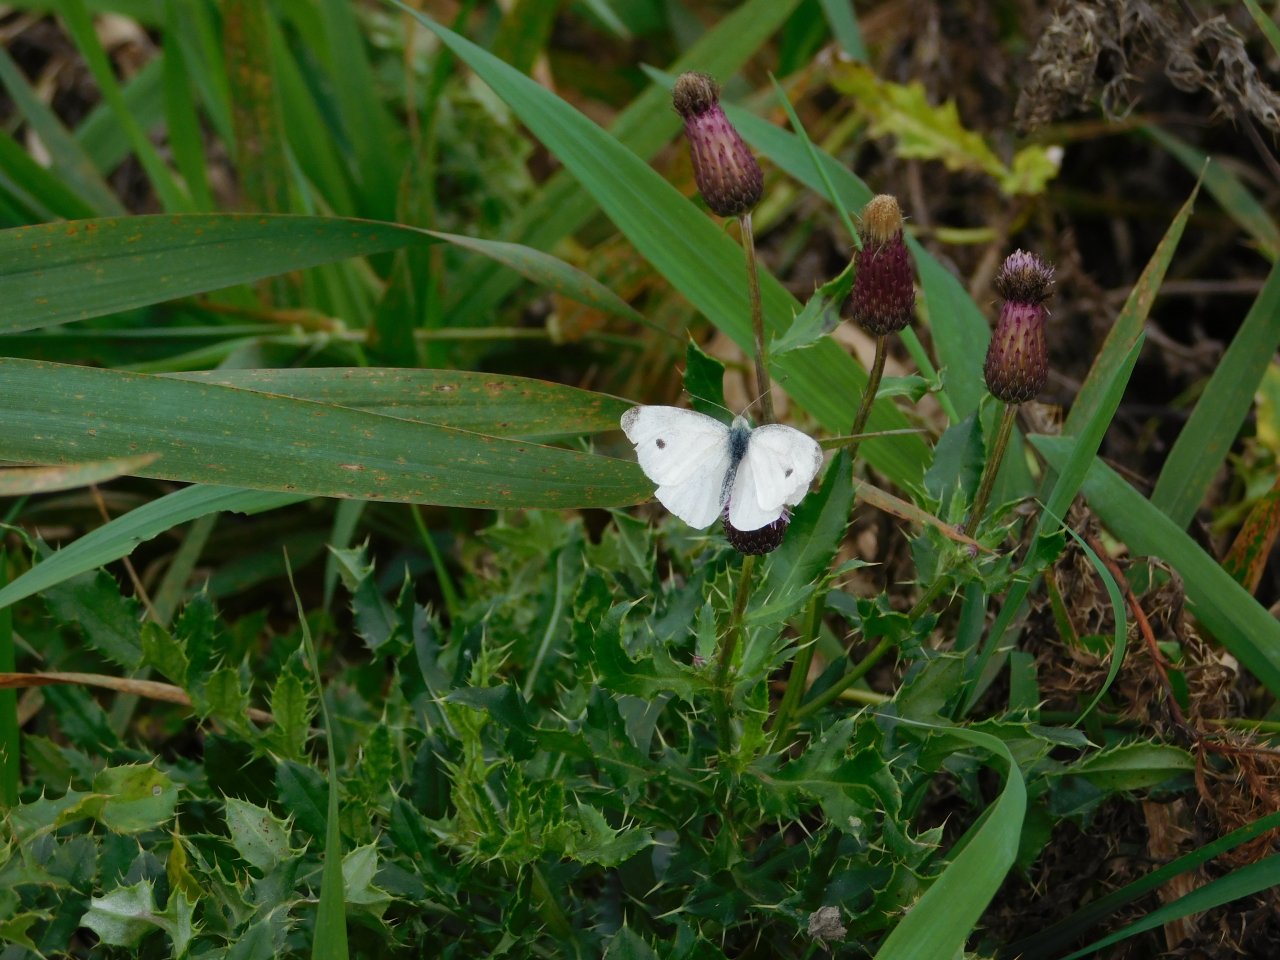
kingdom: Animalia
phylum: Arthropoda
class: Insecta
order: Lepidoptera
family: Pieridae
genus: Pieris
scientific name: Pieris rapae
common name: Cabbage White
